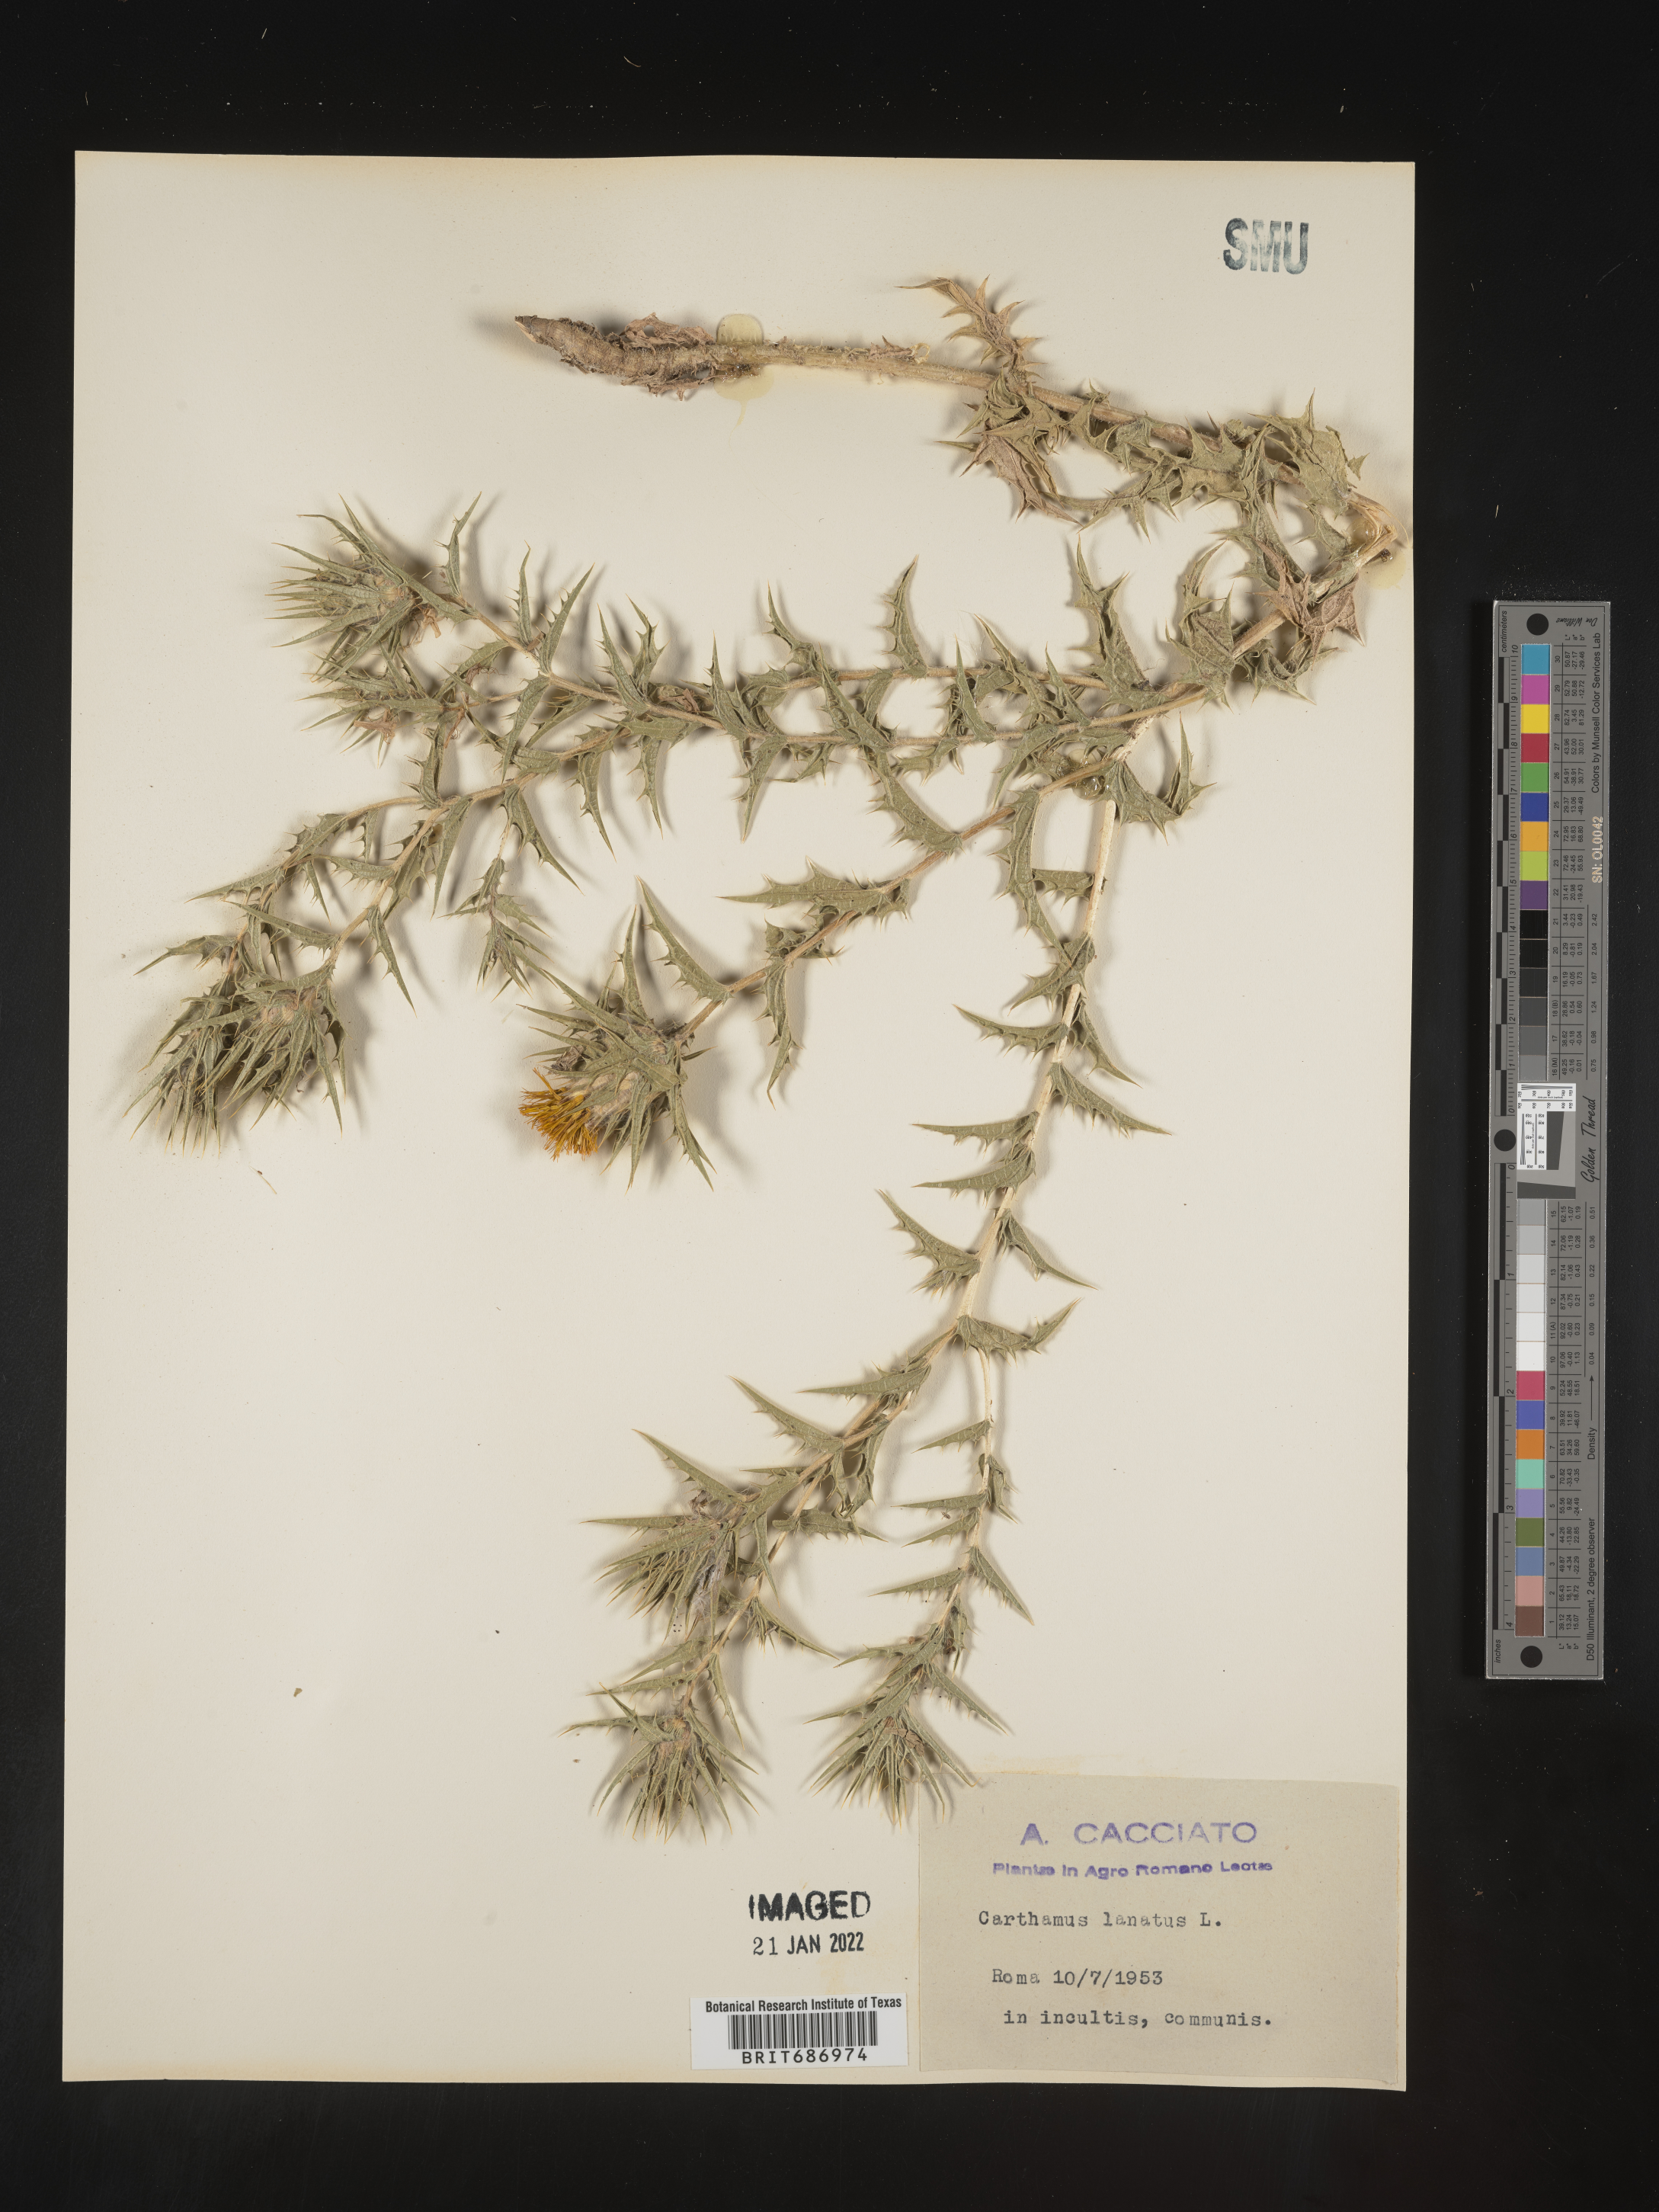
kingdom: Plantae
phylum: Tracheophyta
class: Magnoliopsida
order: Asterales
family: Asteraceae
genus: Carthamus
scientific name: Carthamus
